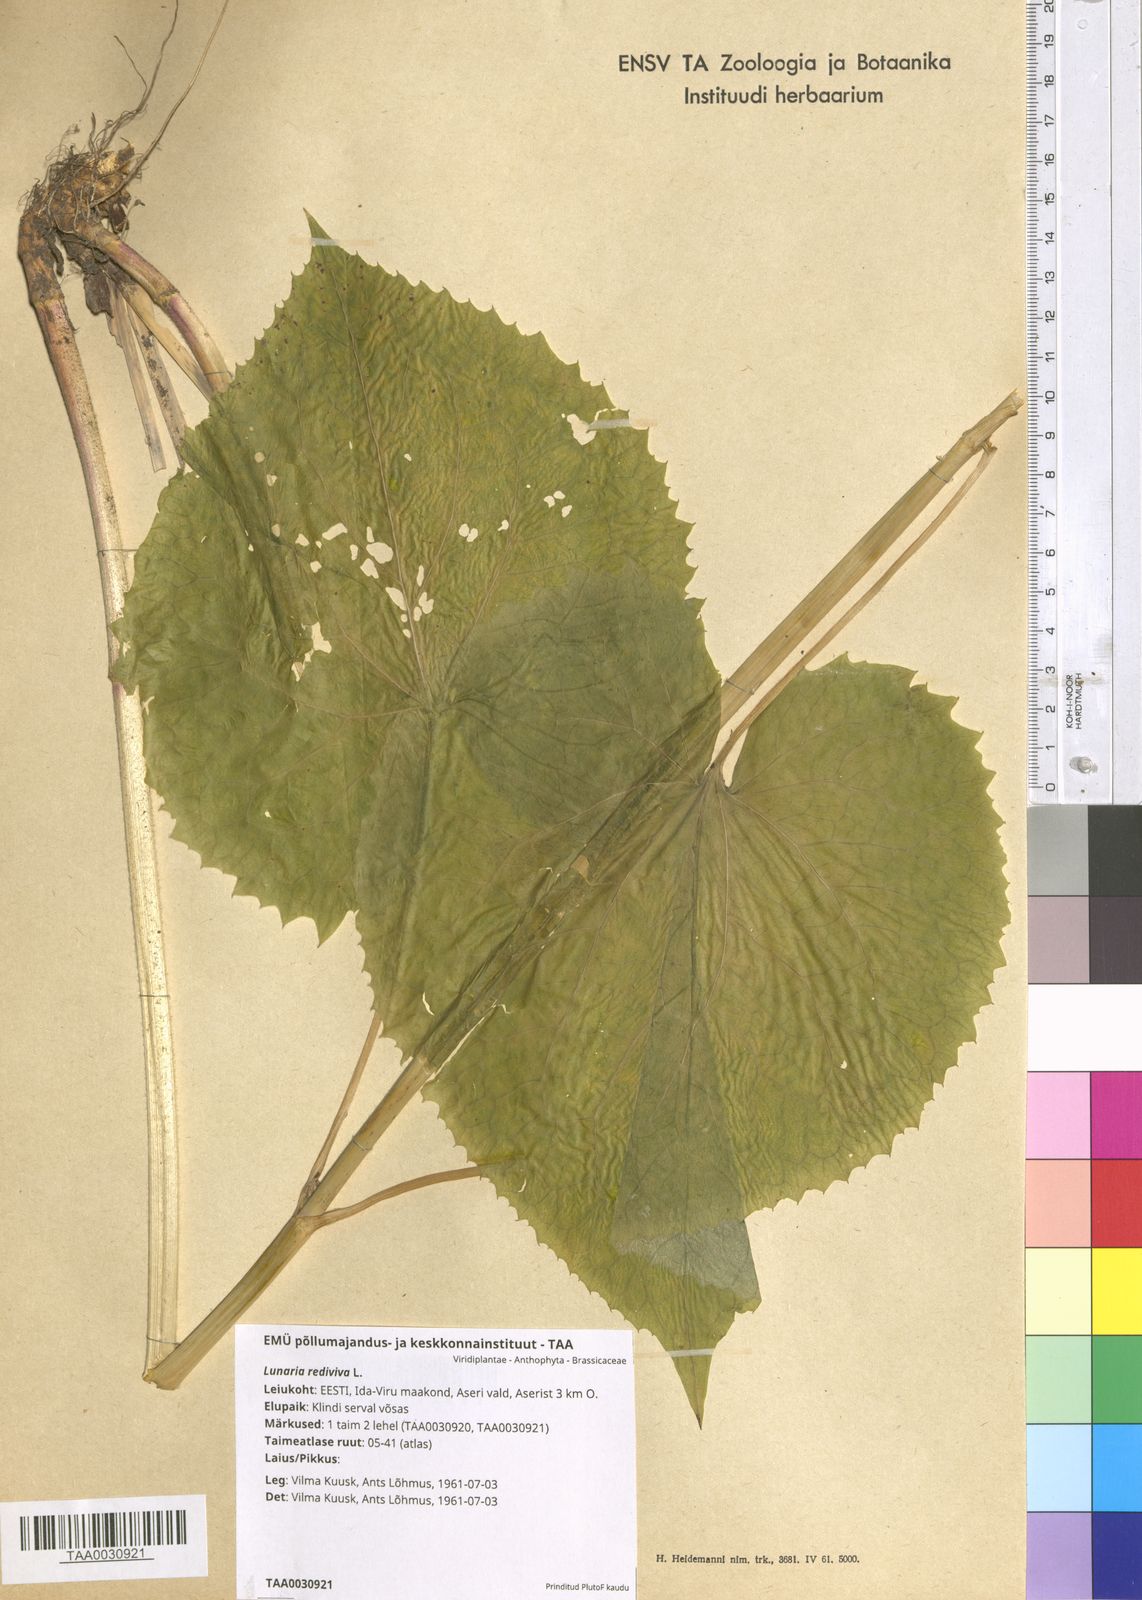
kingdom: Plantae
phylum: Tracheophyta
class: Magnoliopsida
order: Brassicales
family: Brassicaceae
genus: Lunaria
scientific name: Lunaria rediviva
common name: Perennial honesty
